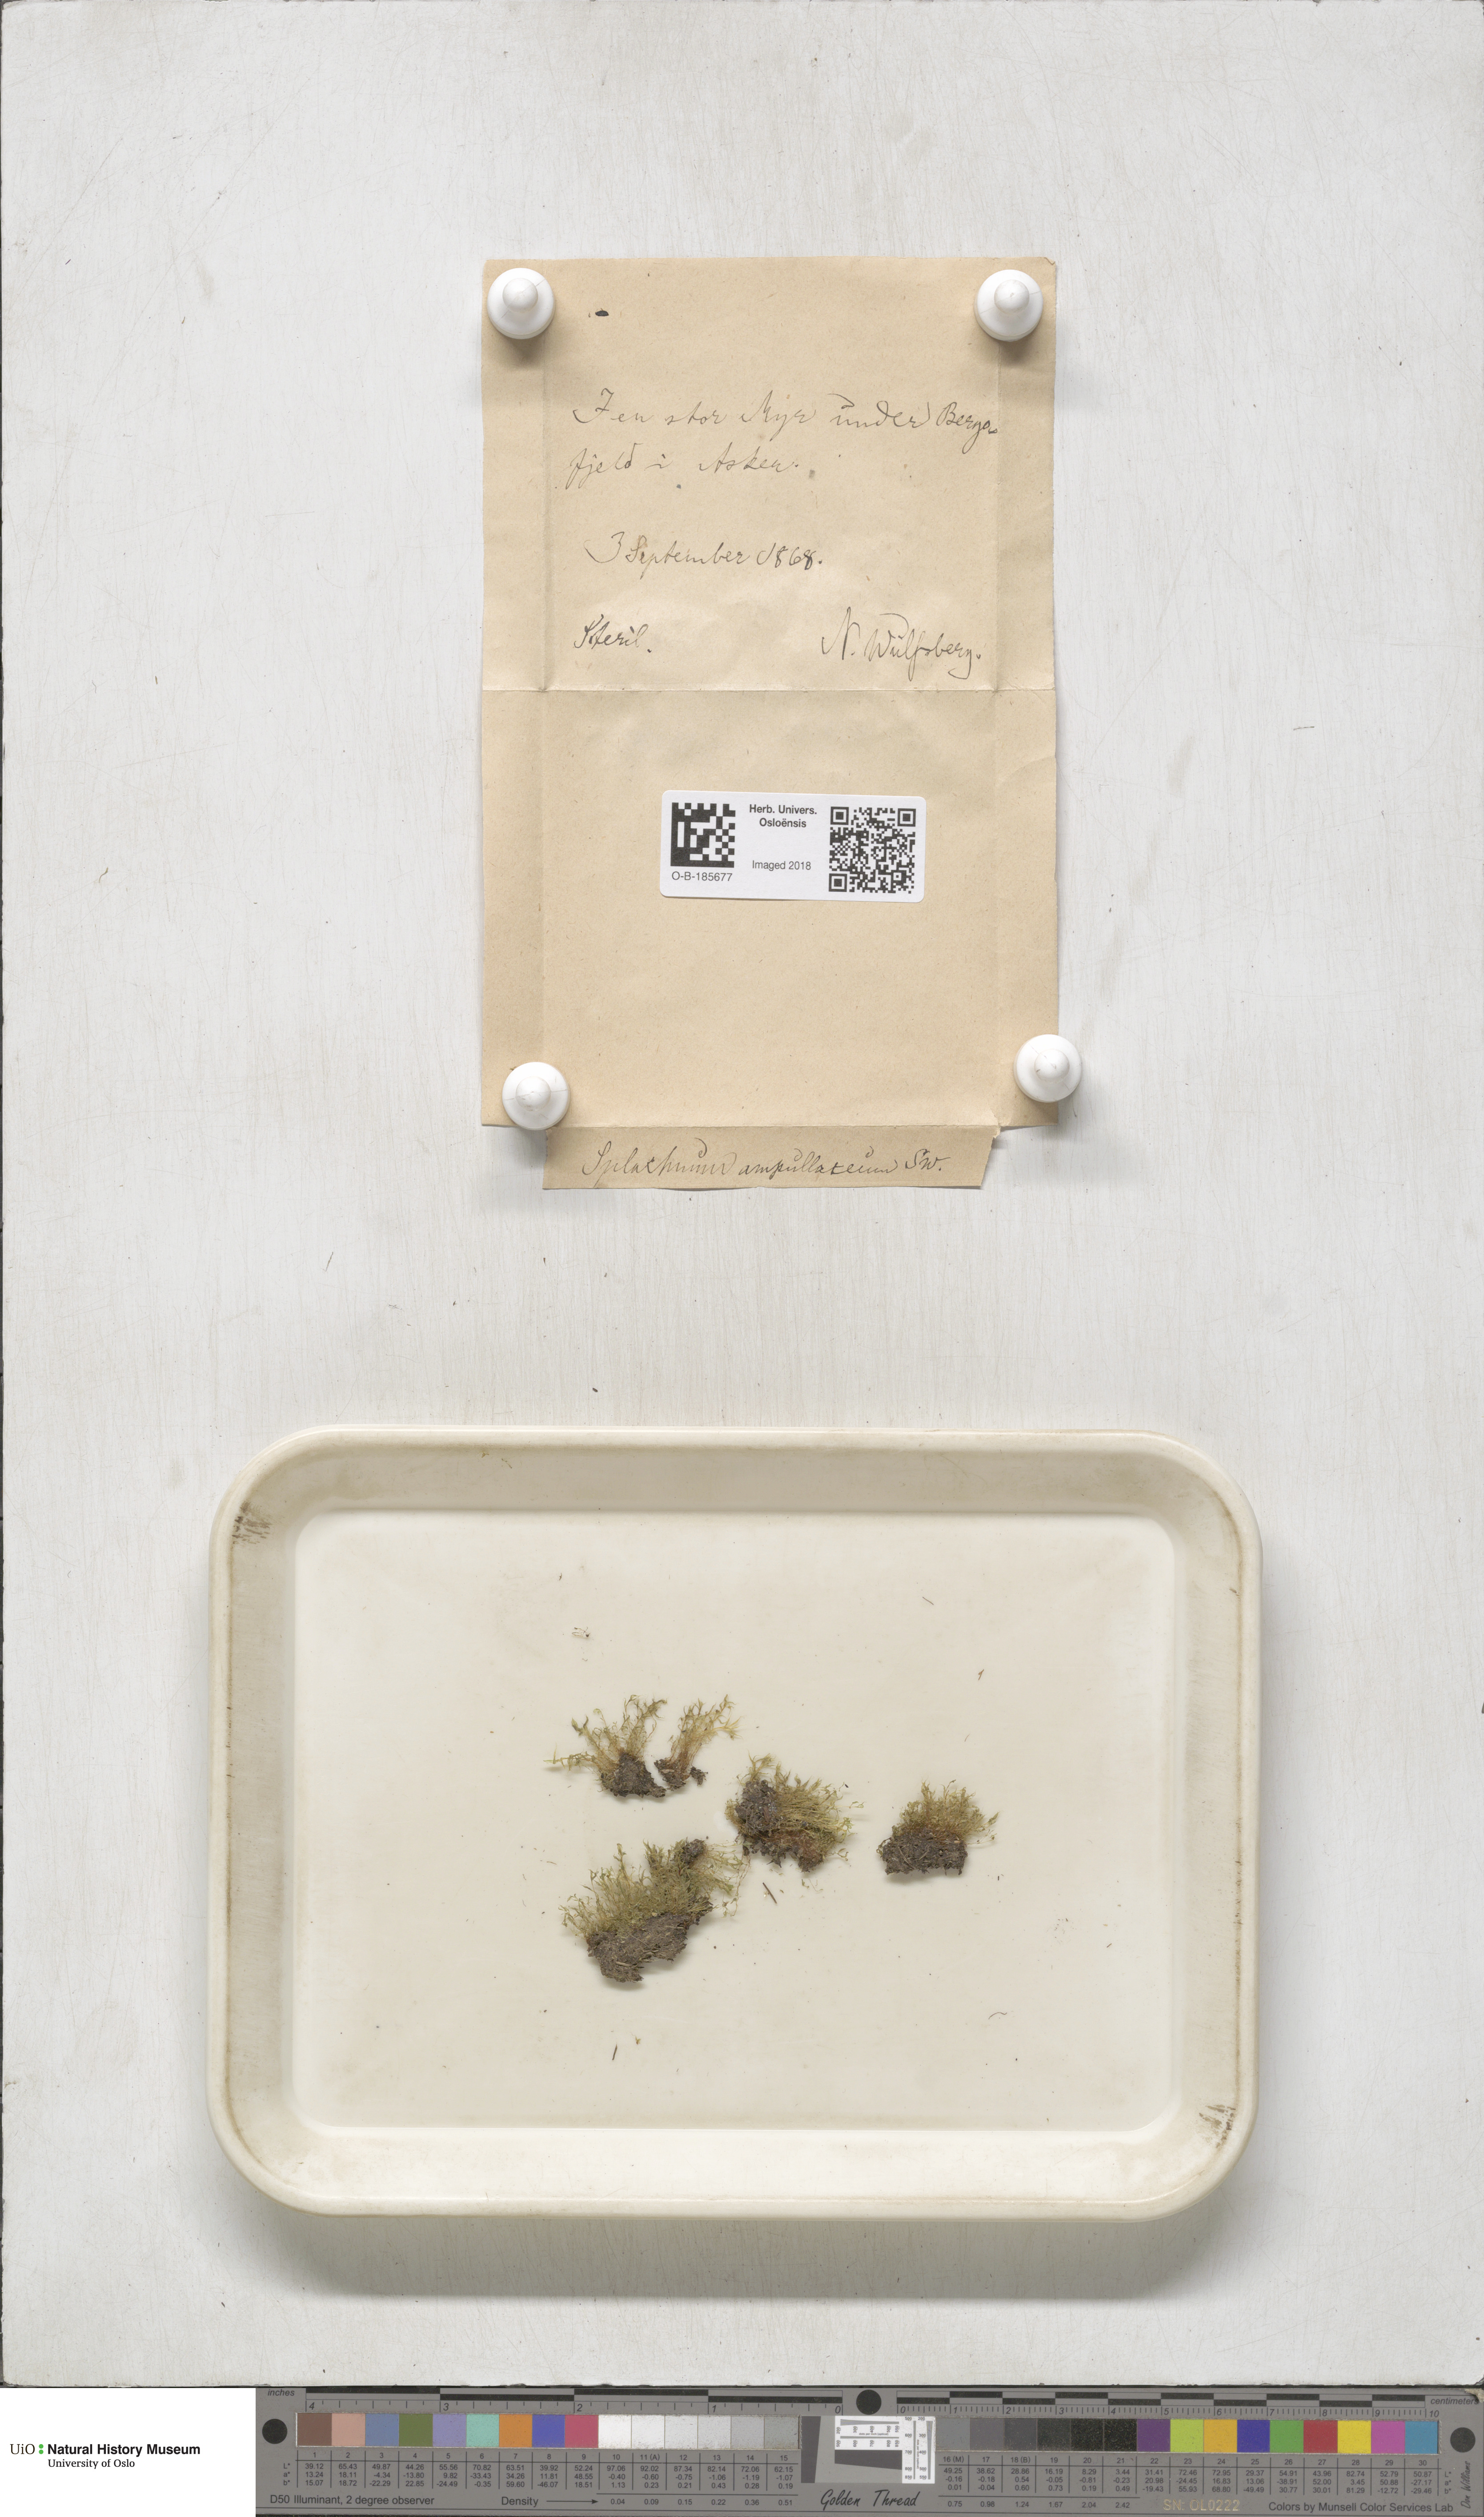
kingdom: Plantae
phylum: Bryophyta
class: Bryopsida
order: Splachnales
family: Splachnaceae
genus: Splachnum
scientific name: Splachnum ampullaceum
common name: Cruet dung moss
